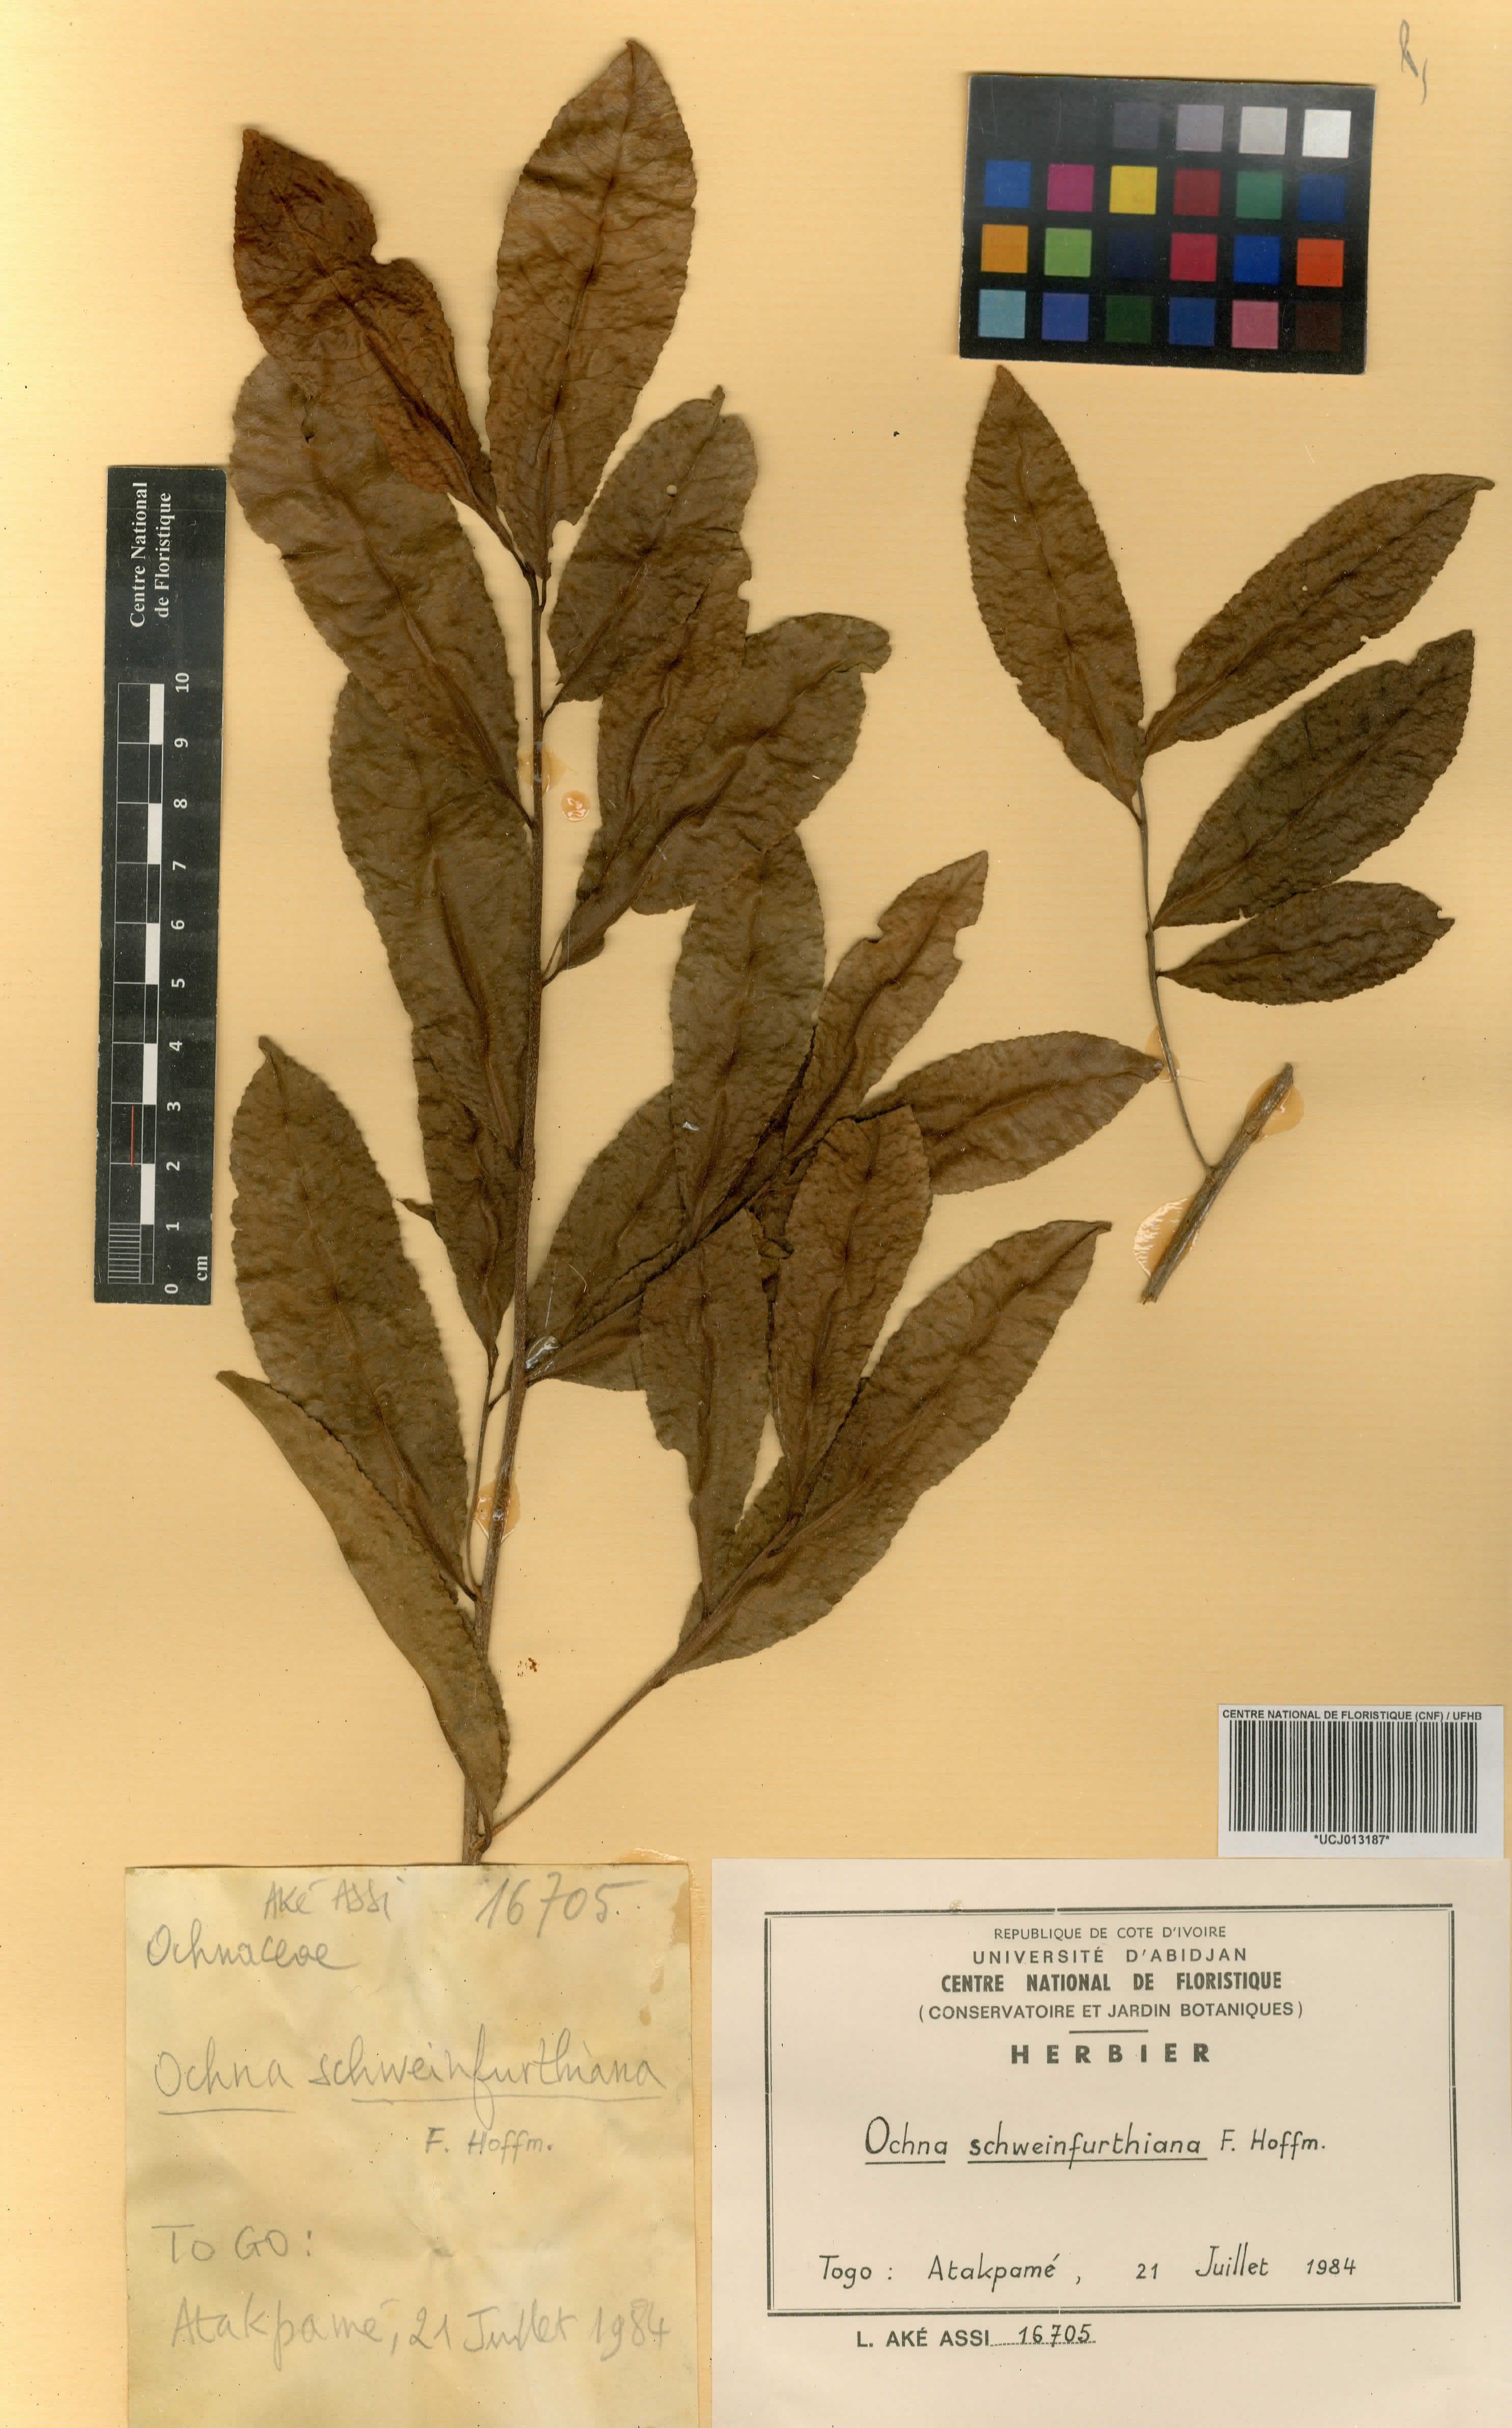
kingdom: Plantae
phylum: Tracheophyta
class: Magnoliopsida
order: Malpighiales
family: Ochnaceae
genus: Ochna
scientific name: Ochna schweinfurthiana
